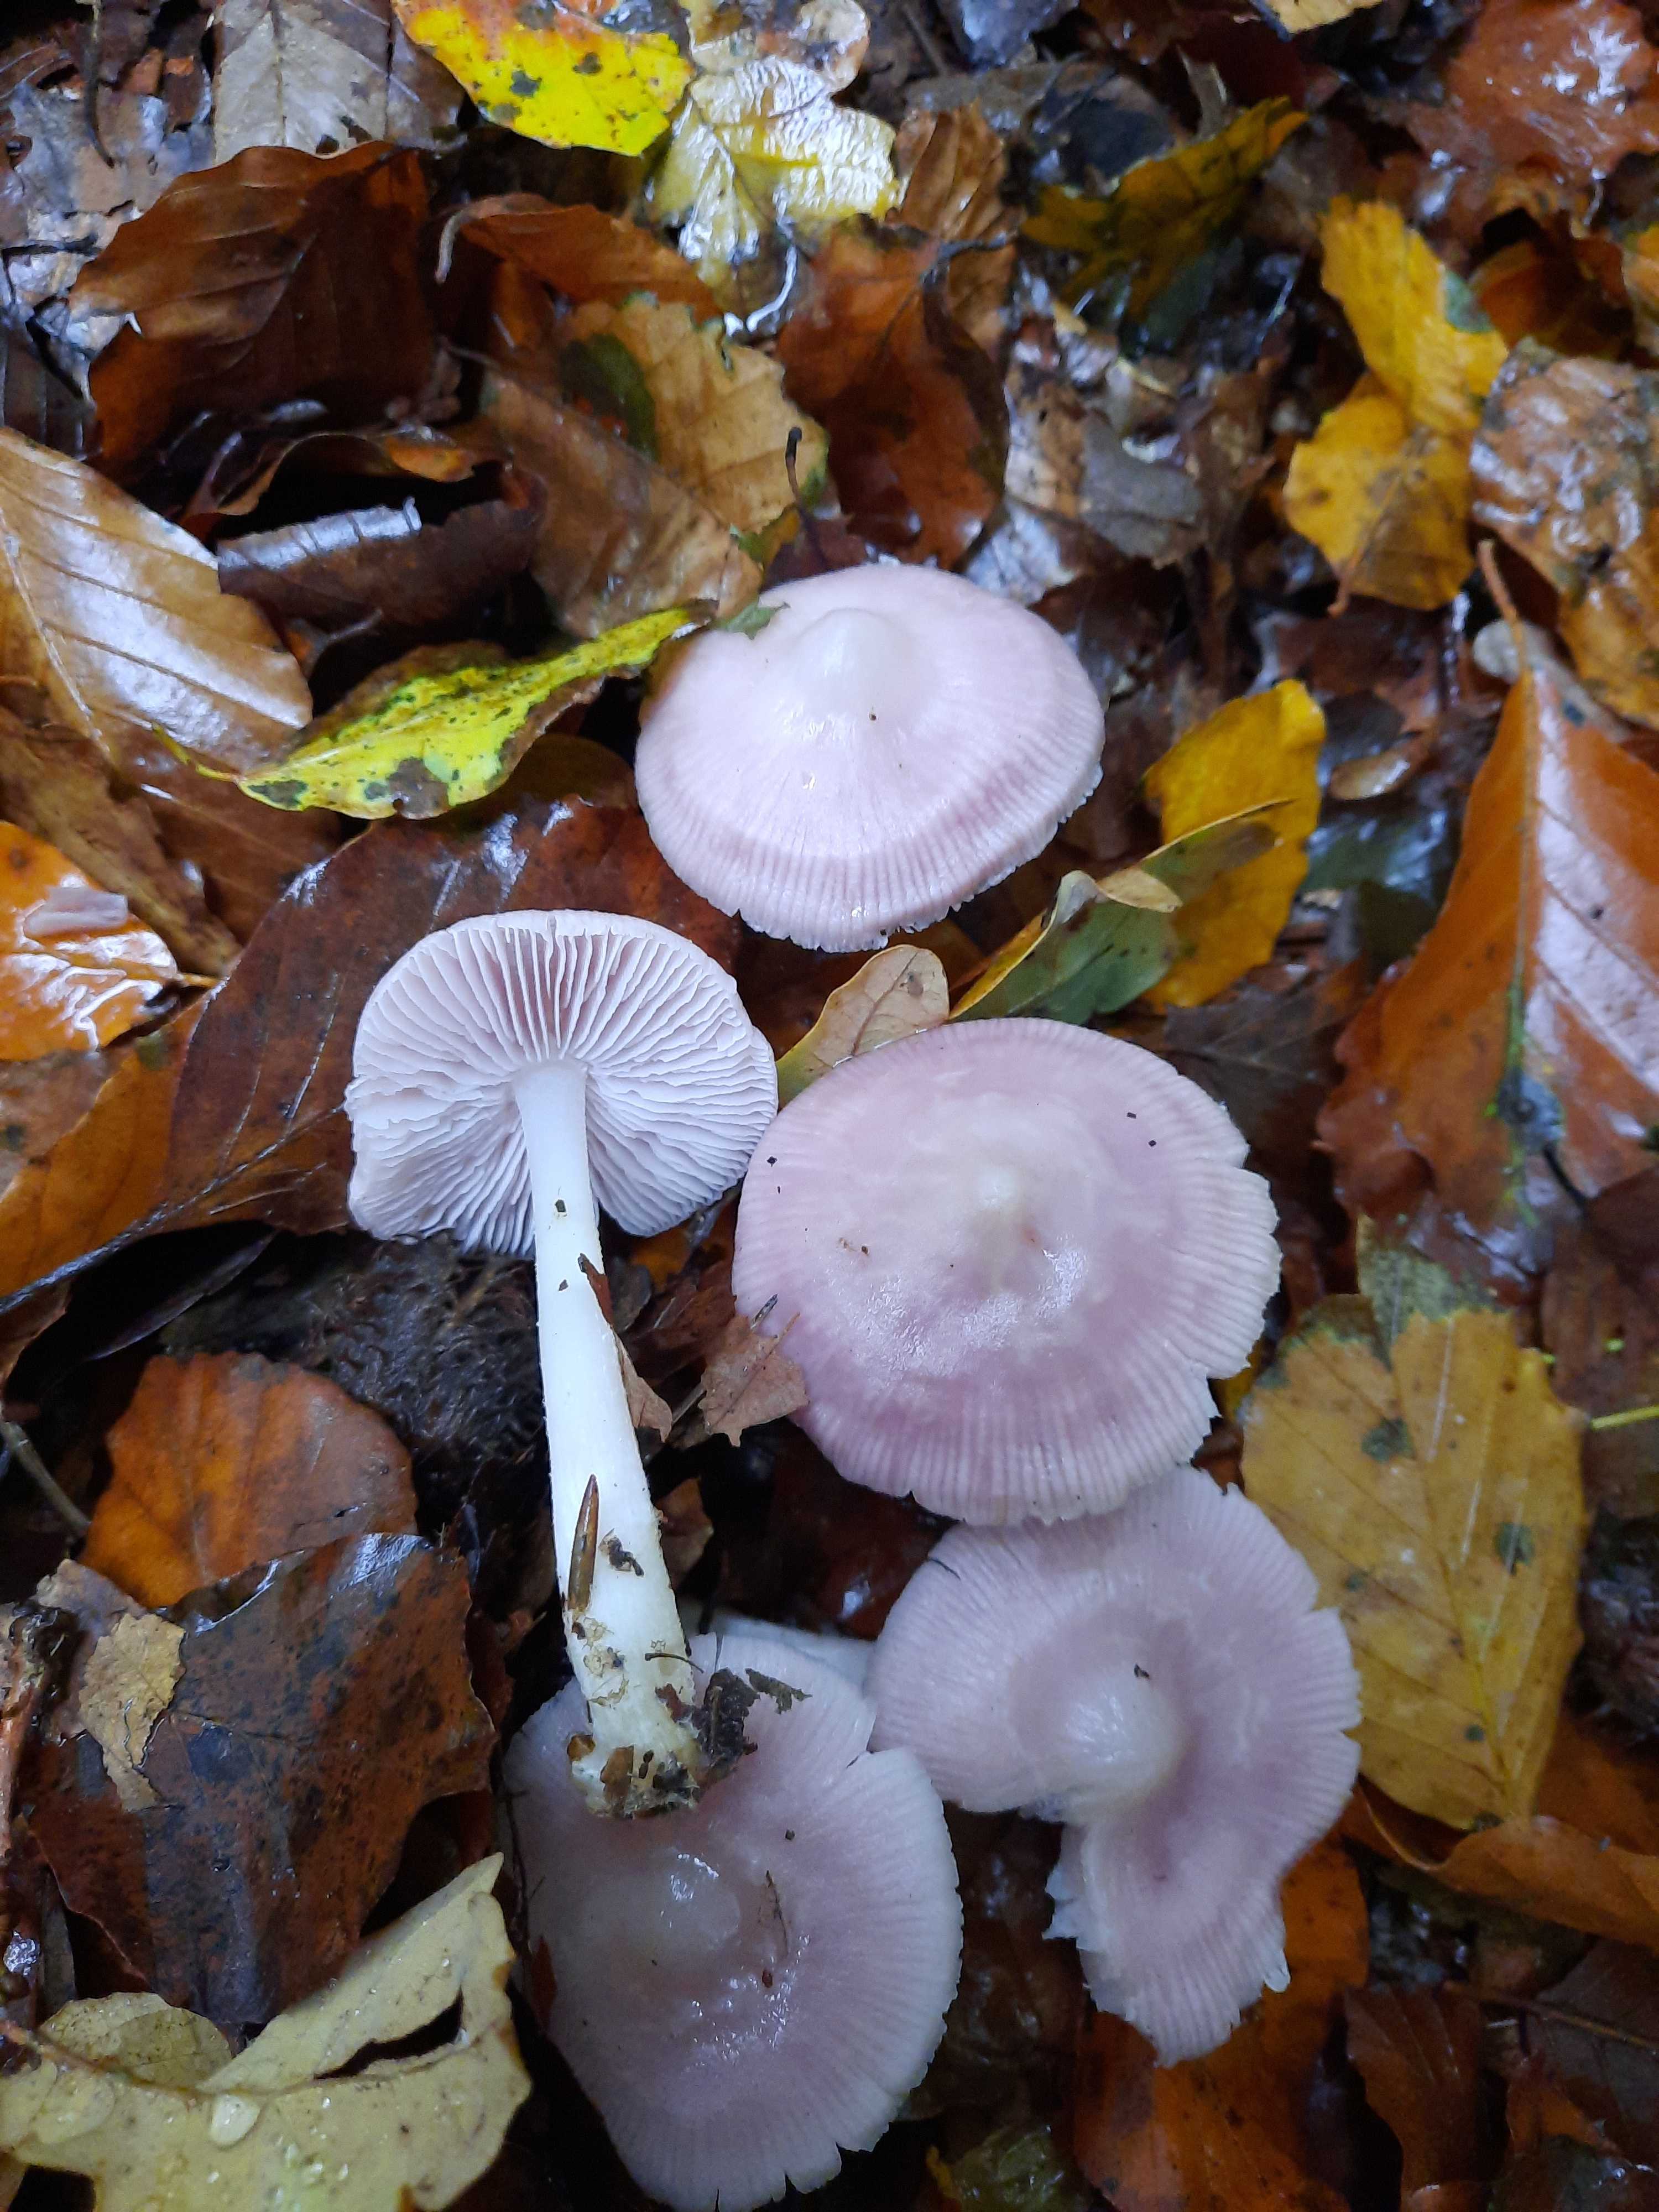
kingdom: Fungi
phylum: Basidiomycota
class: Agaricomycetes
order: Agaricales
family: Mycenaceae
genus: Mycena
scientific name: Mycena rosea
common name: rosa huesvamp
